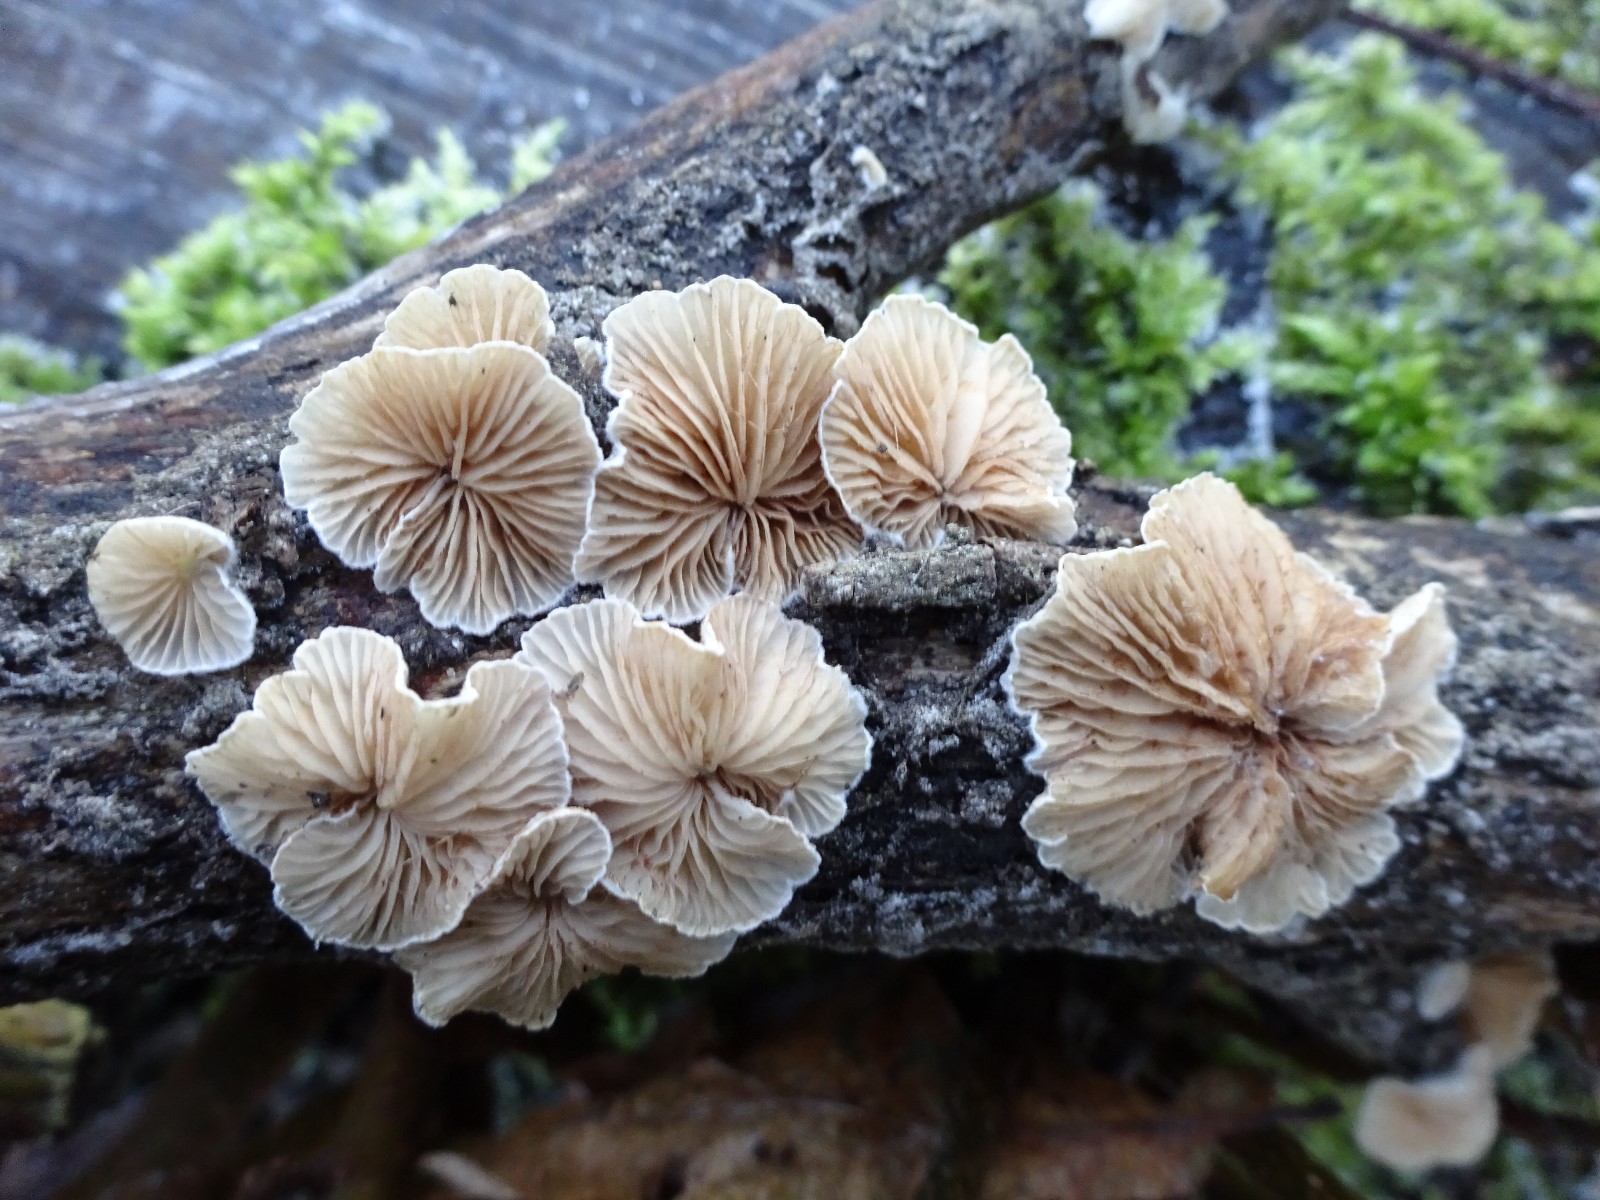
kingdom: Fungi
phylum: Basidiomycota
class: Agaricomycetes
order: Agaricales
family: Crepidotaceae
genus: Crepidotus
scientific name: Crepidotus
